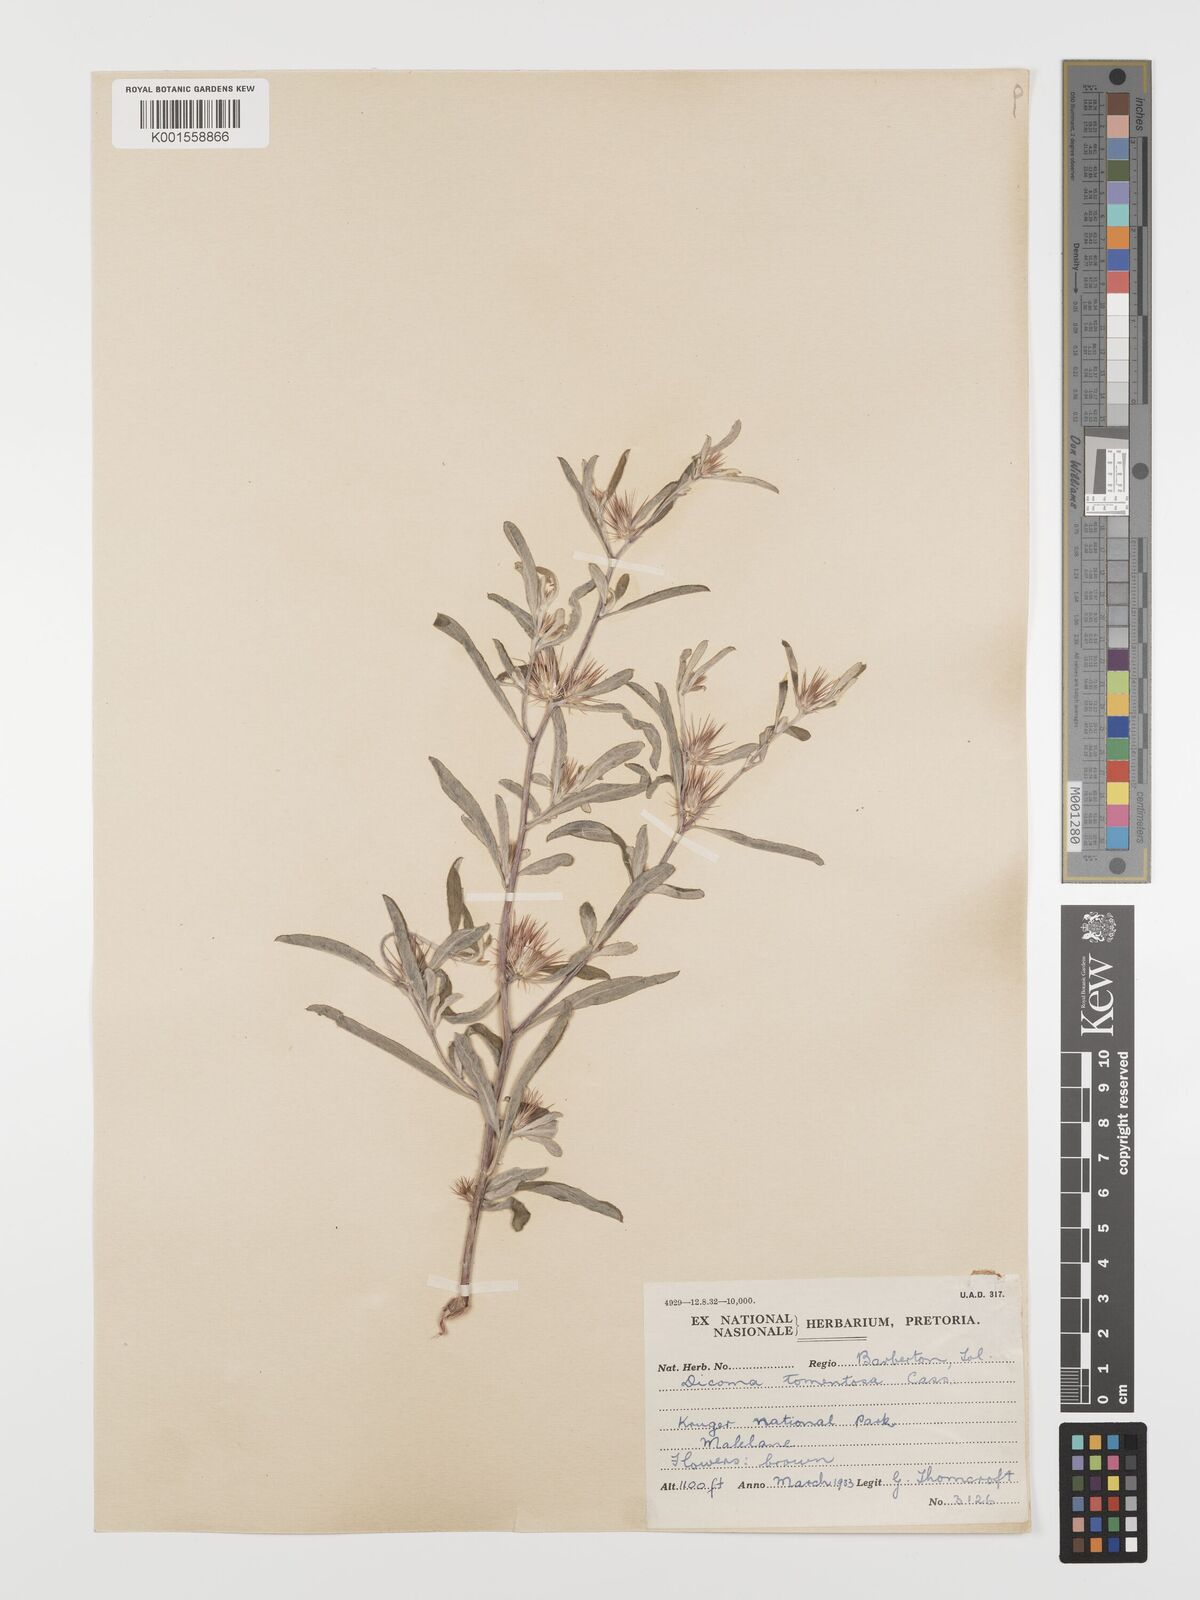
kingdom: Plantae
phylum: Tracheophyta
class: Magnoliopsida
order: Asterales
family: Asteraceae
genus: Dicoma
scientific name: Dicoma tomentosa
